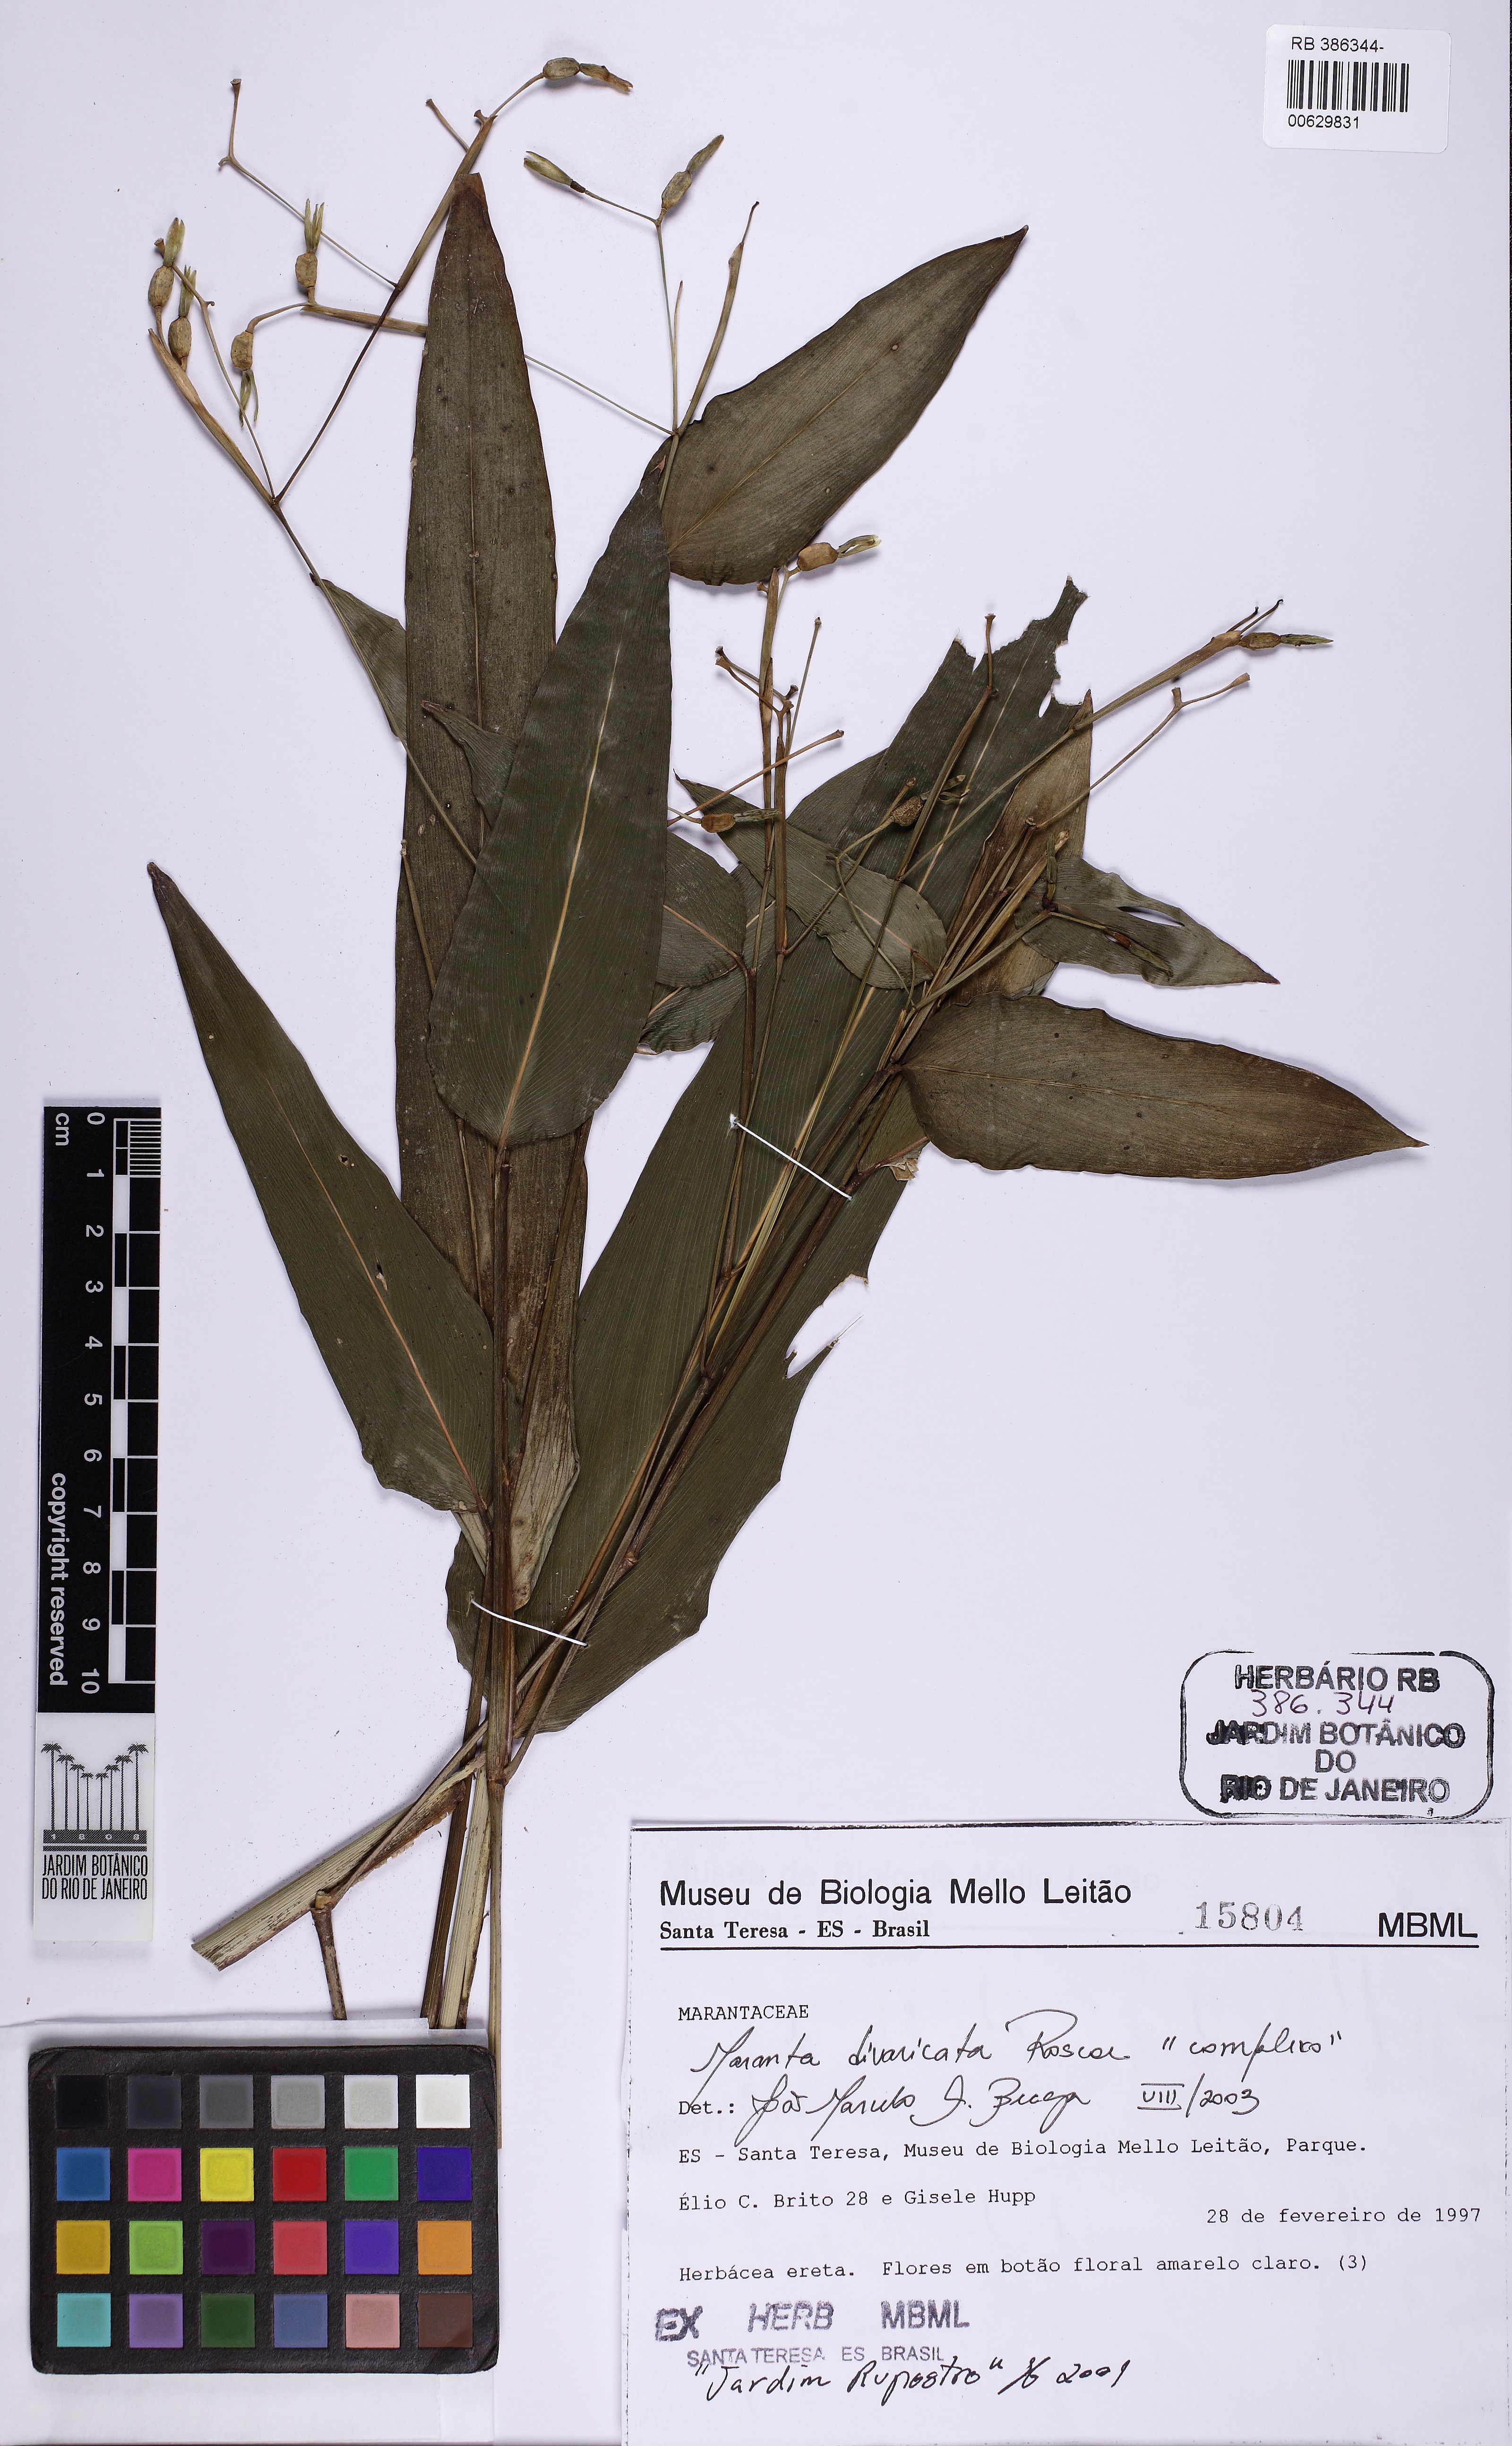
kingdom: Plantae
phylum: Tracheophyta
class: Liliopsida
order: Zingiberales
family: Marantaceae
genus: Maranta
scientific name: Maranta divaricata
